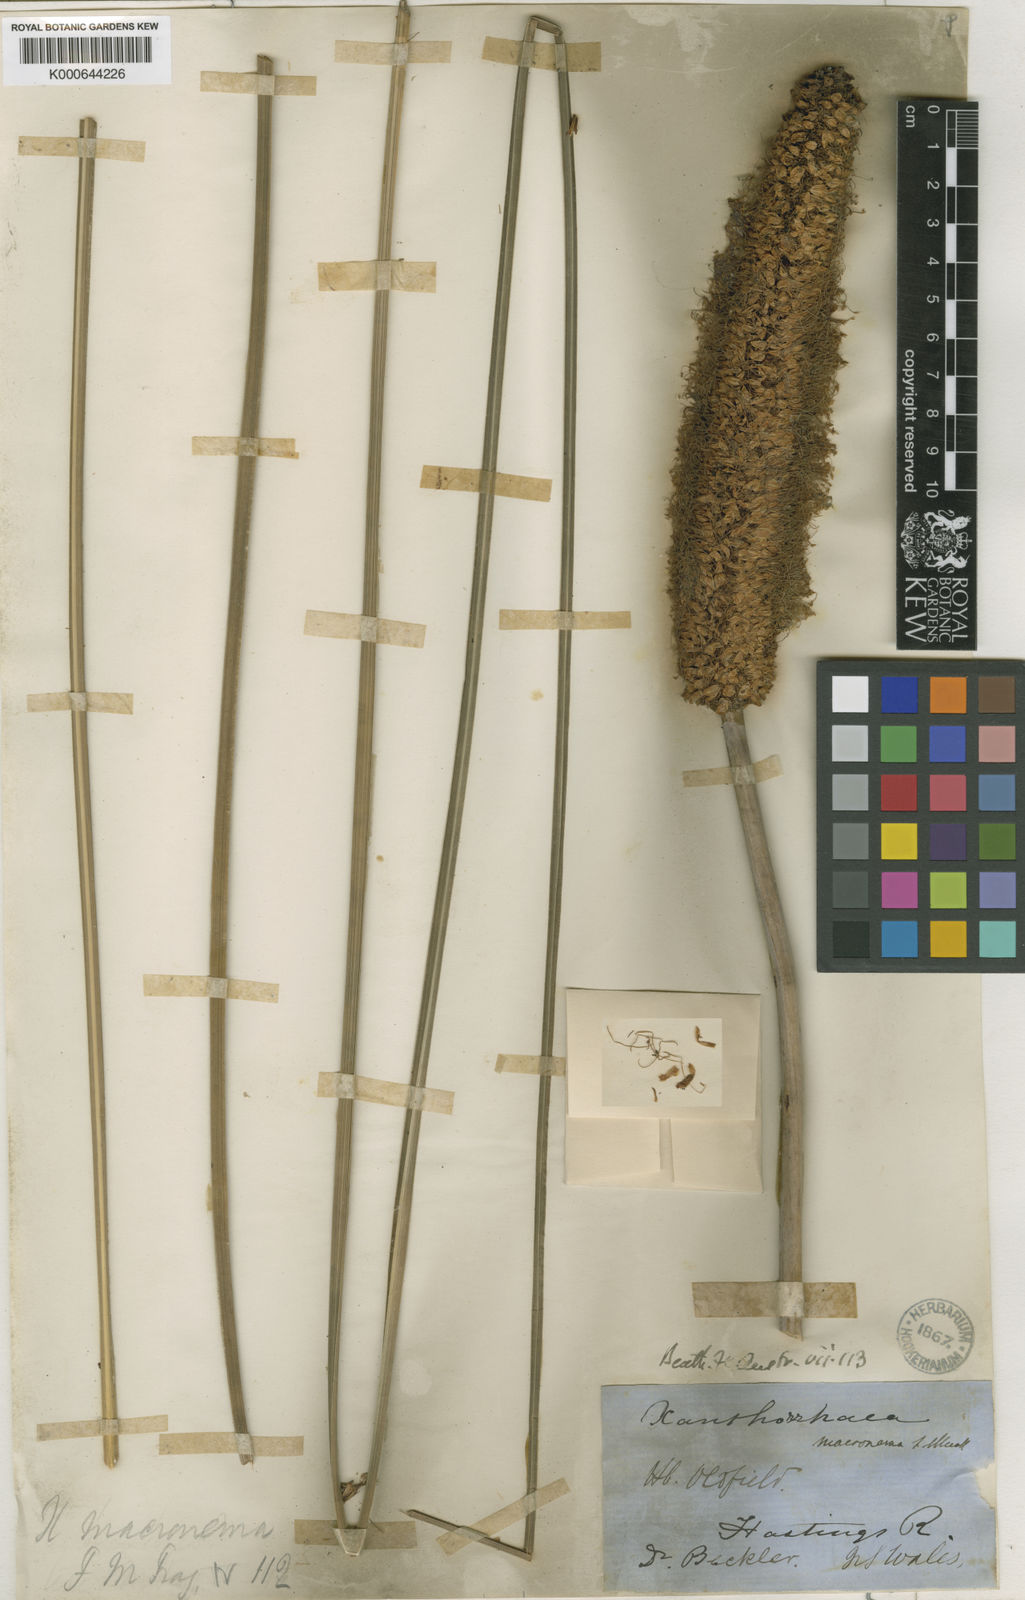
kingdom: Plantae
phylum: Tracheophyta
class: Liliopsida
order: Asparagales
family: Asphodelaceae
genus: Xanthorrhoea
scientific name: Xanthorrhoea macronema
